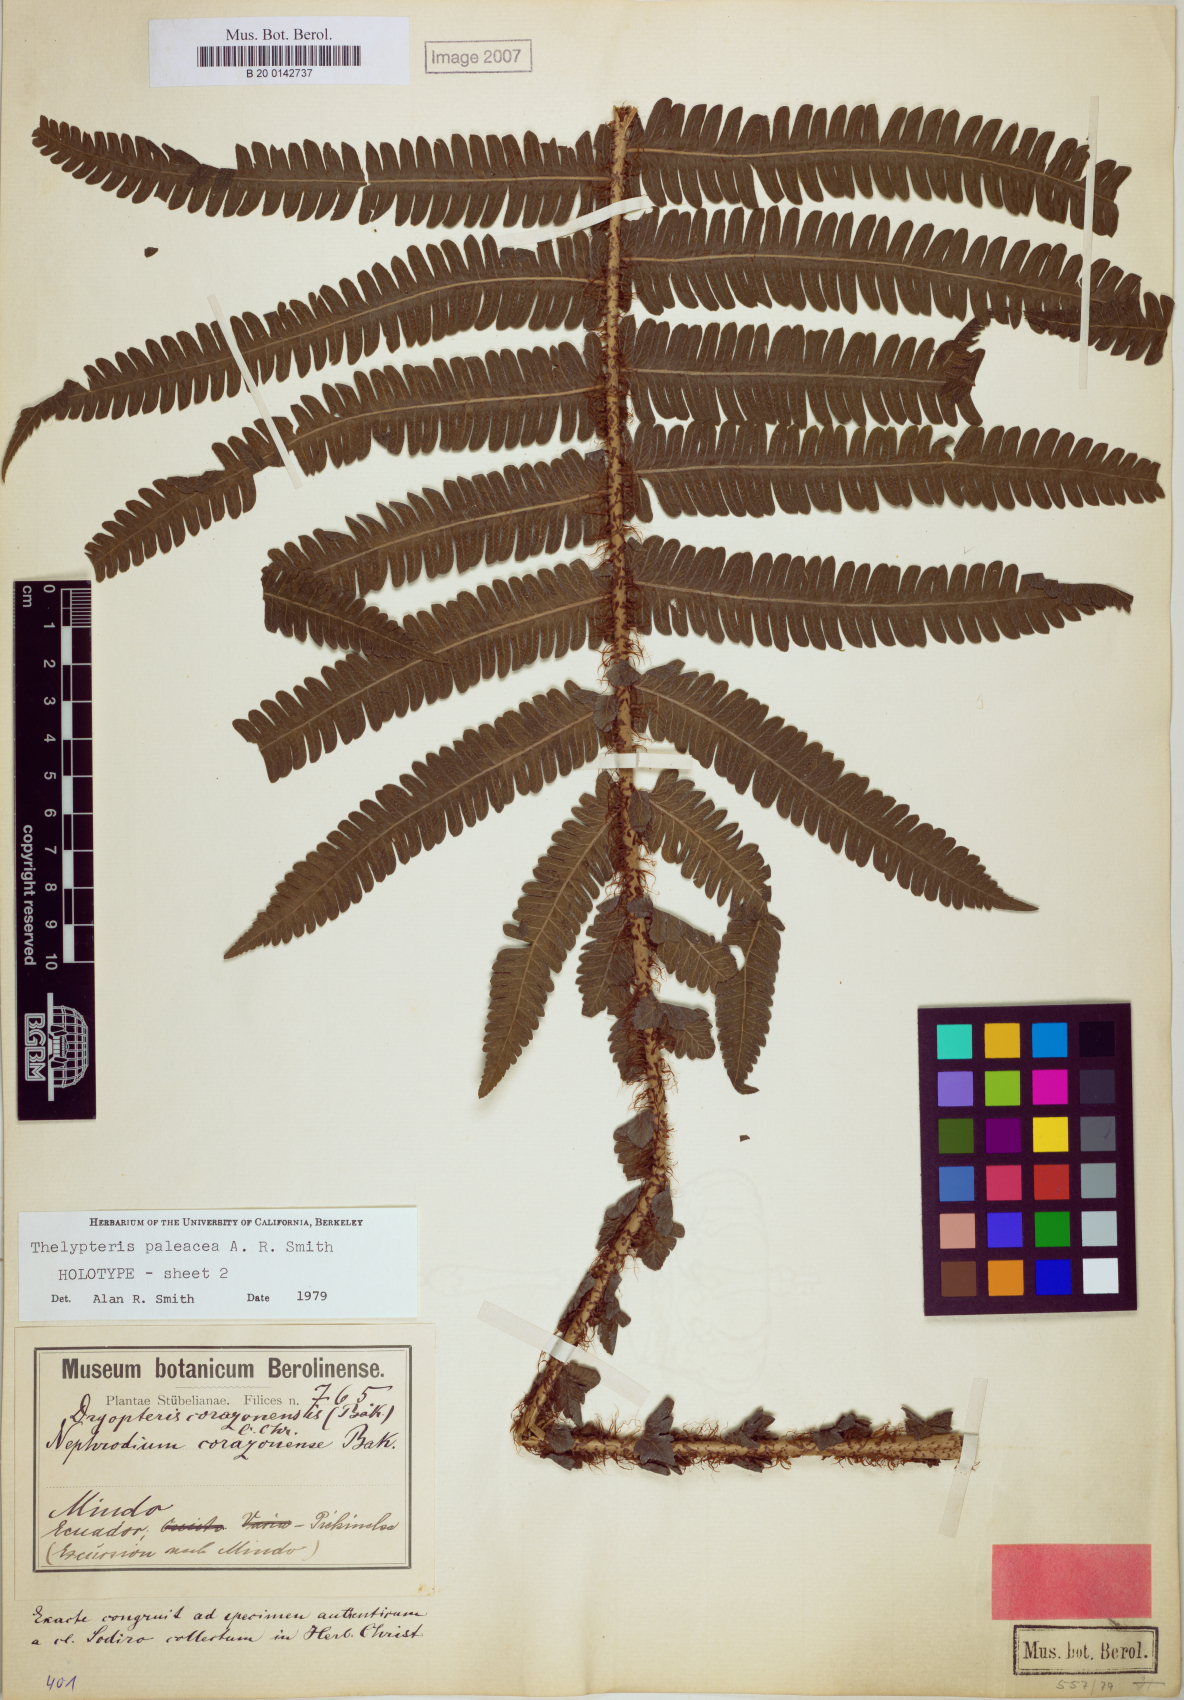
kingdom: Plantae
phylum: Tracheophyta
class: Polypodiopsida
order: Polypodiales
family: Thelypteridaceae
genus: Amauropelta
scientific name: Amauropelta paleacea
